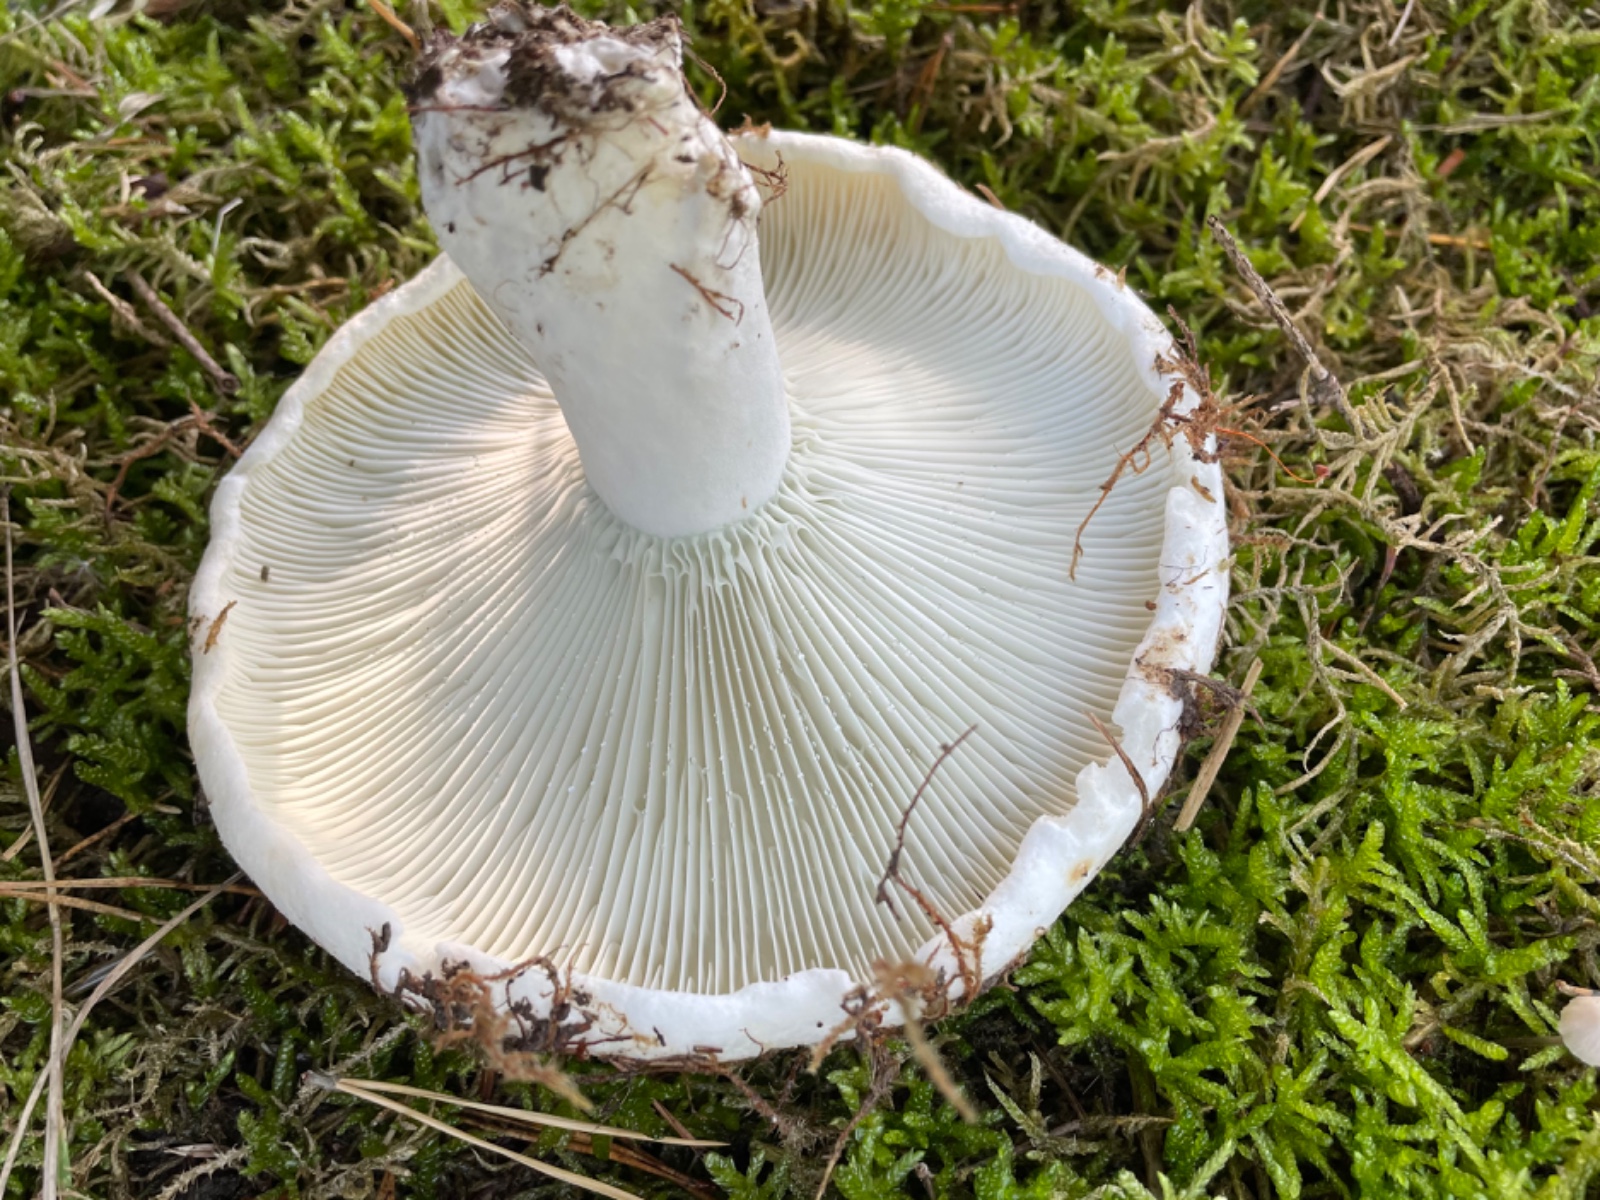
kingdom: Fungi
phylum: Basidiomycota
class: Agaricomycetes
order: Russulales
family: Russulaceae
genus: Russula
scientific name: Russula chloroides
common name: grønhalset tragt-skørhat
